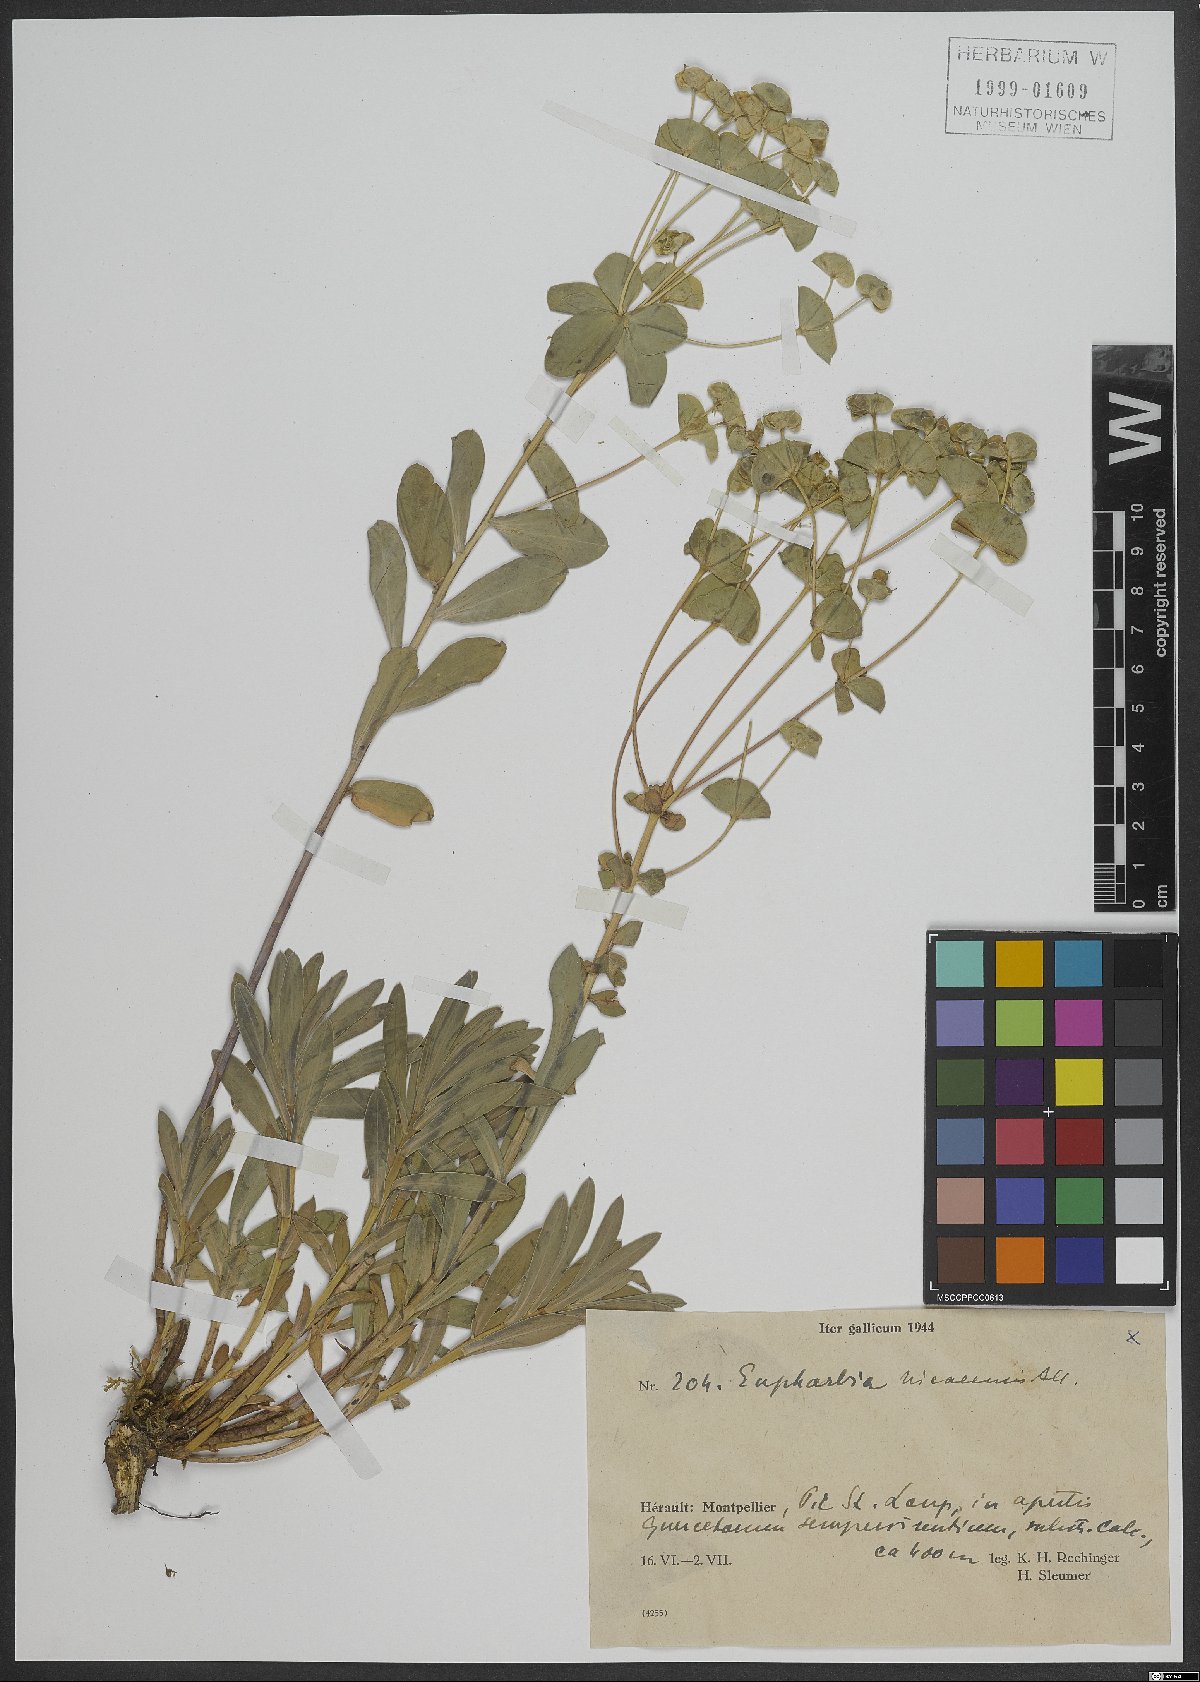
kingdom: Plantae
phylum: Tracheophyta
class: Magnoliopsida
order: Malpighiales
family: Euphorbiaceae
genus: Euphorbia
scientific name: Euphorbia nicaeensis
